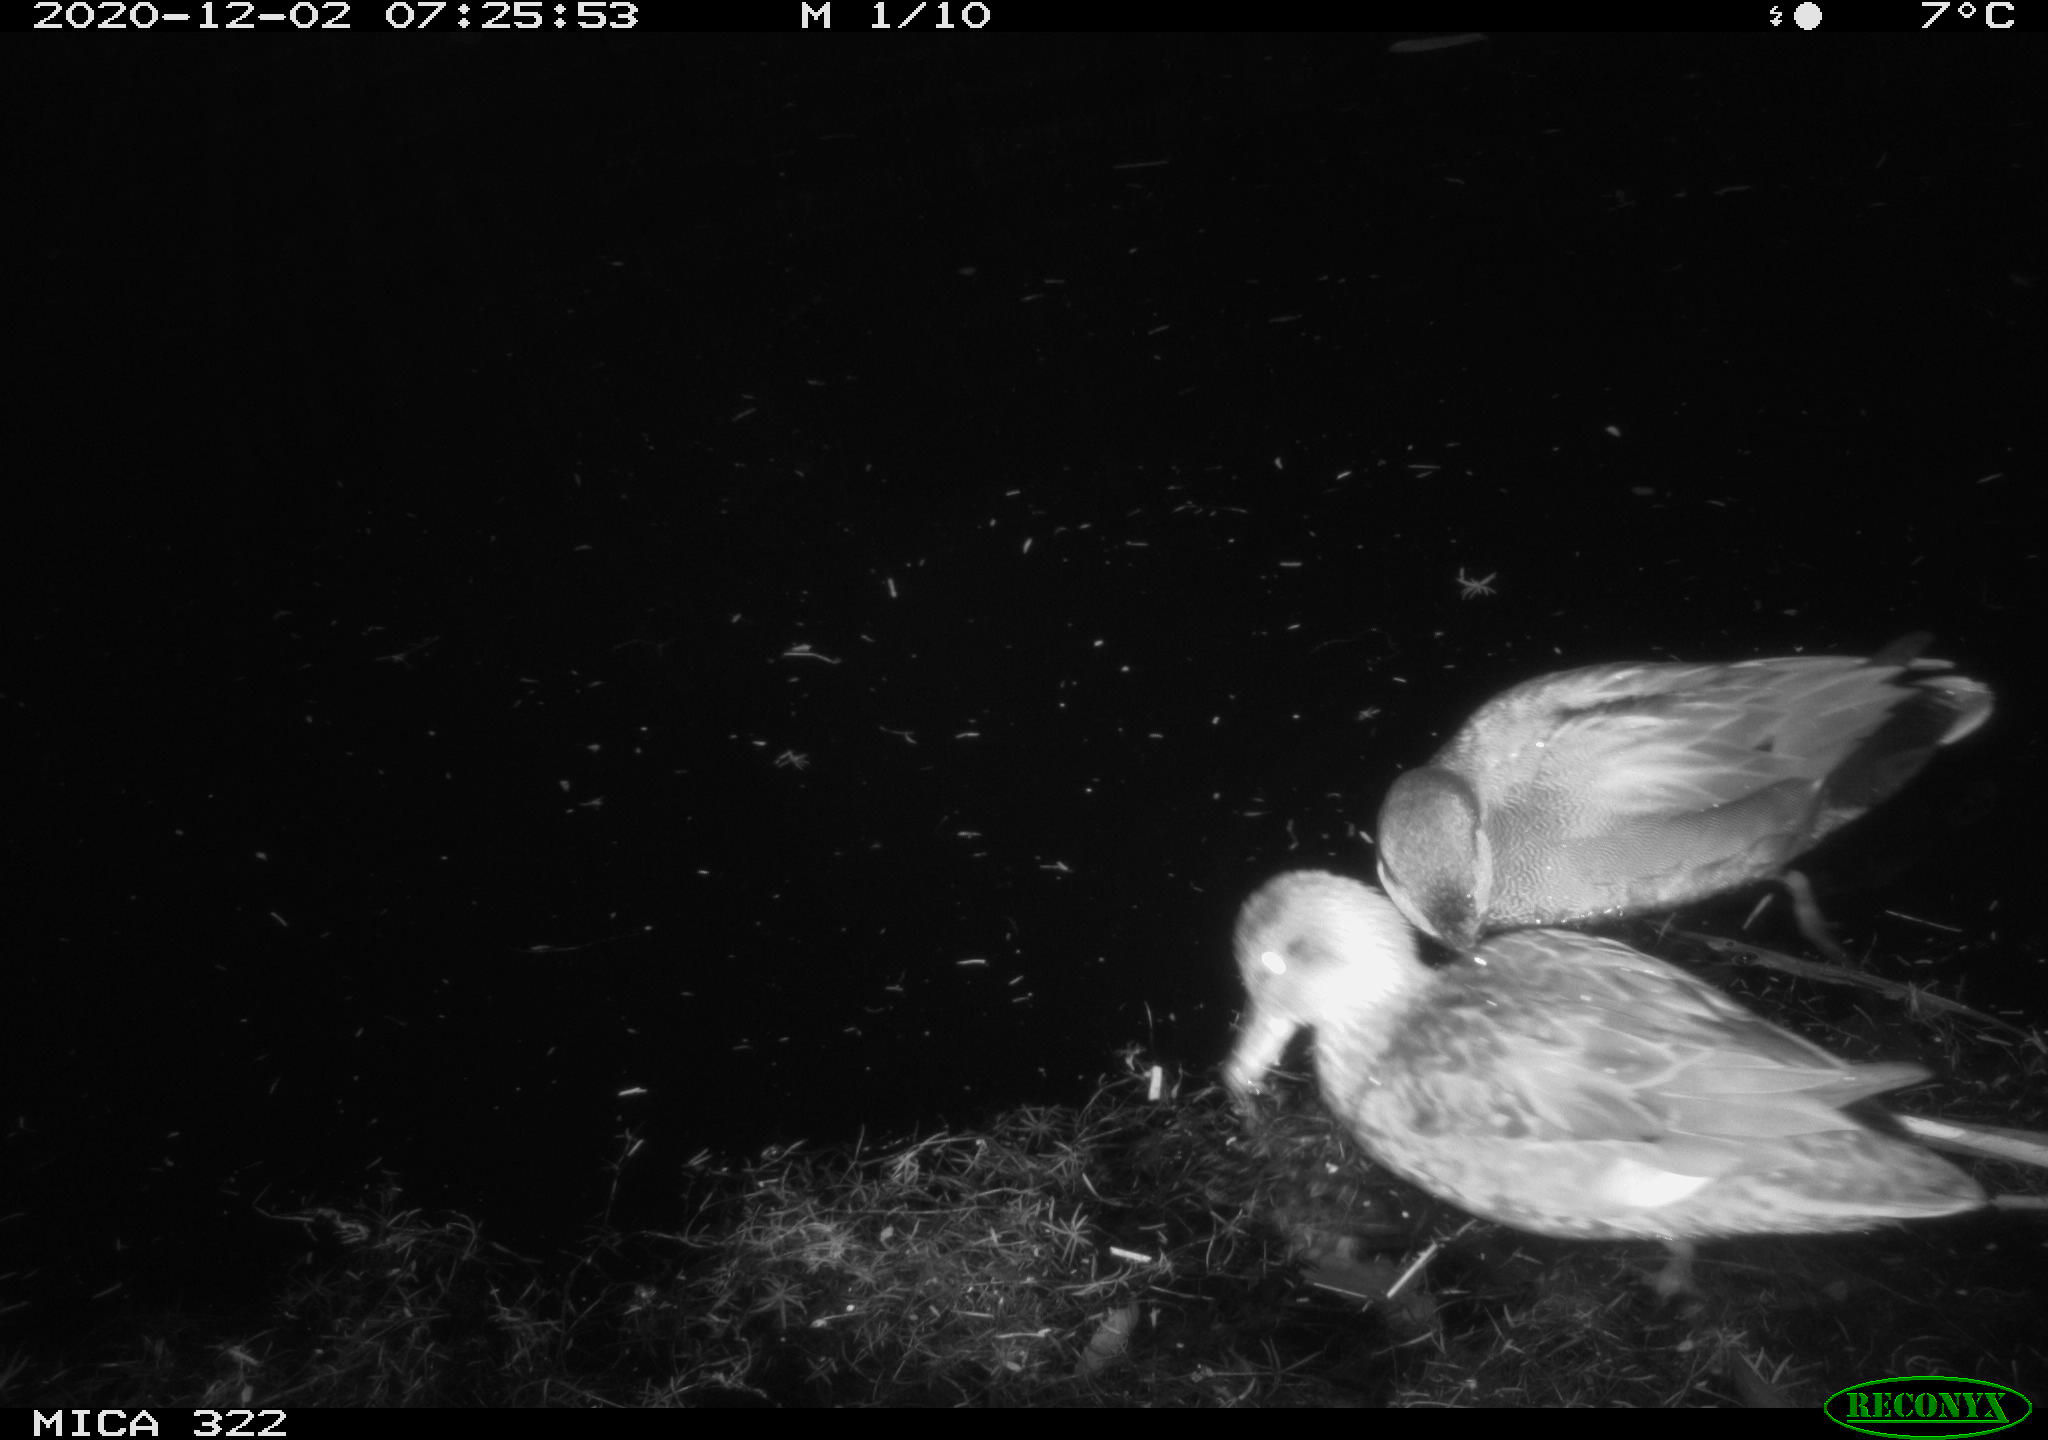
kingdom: Animalia
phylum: Chordata
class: Aves
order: Anseriformes
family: Anatidae
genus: Mareca
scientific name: Mareca strepera
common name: Gadwall
